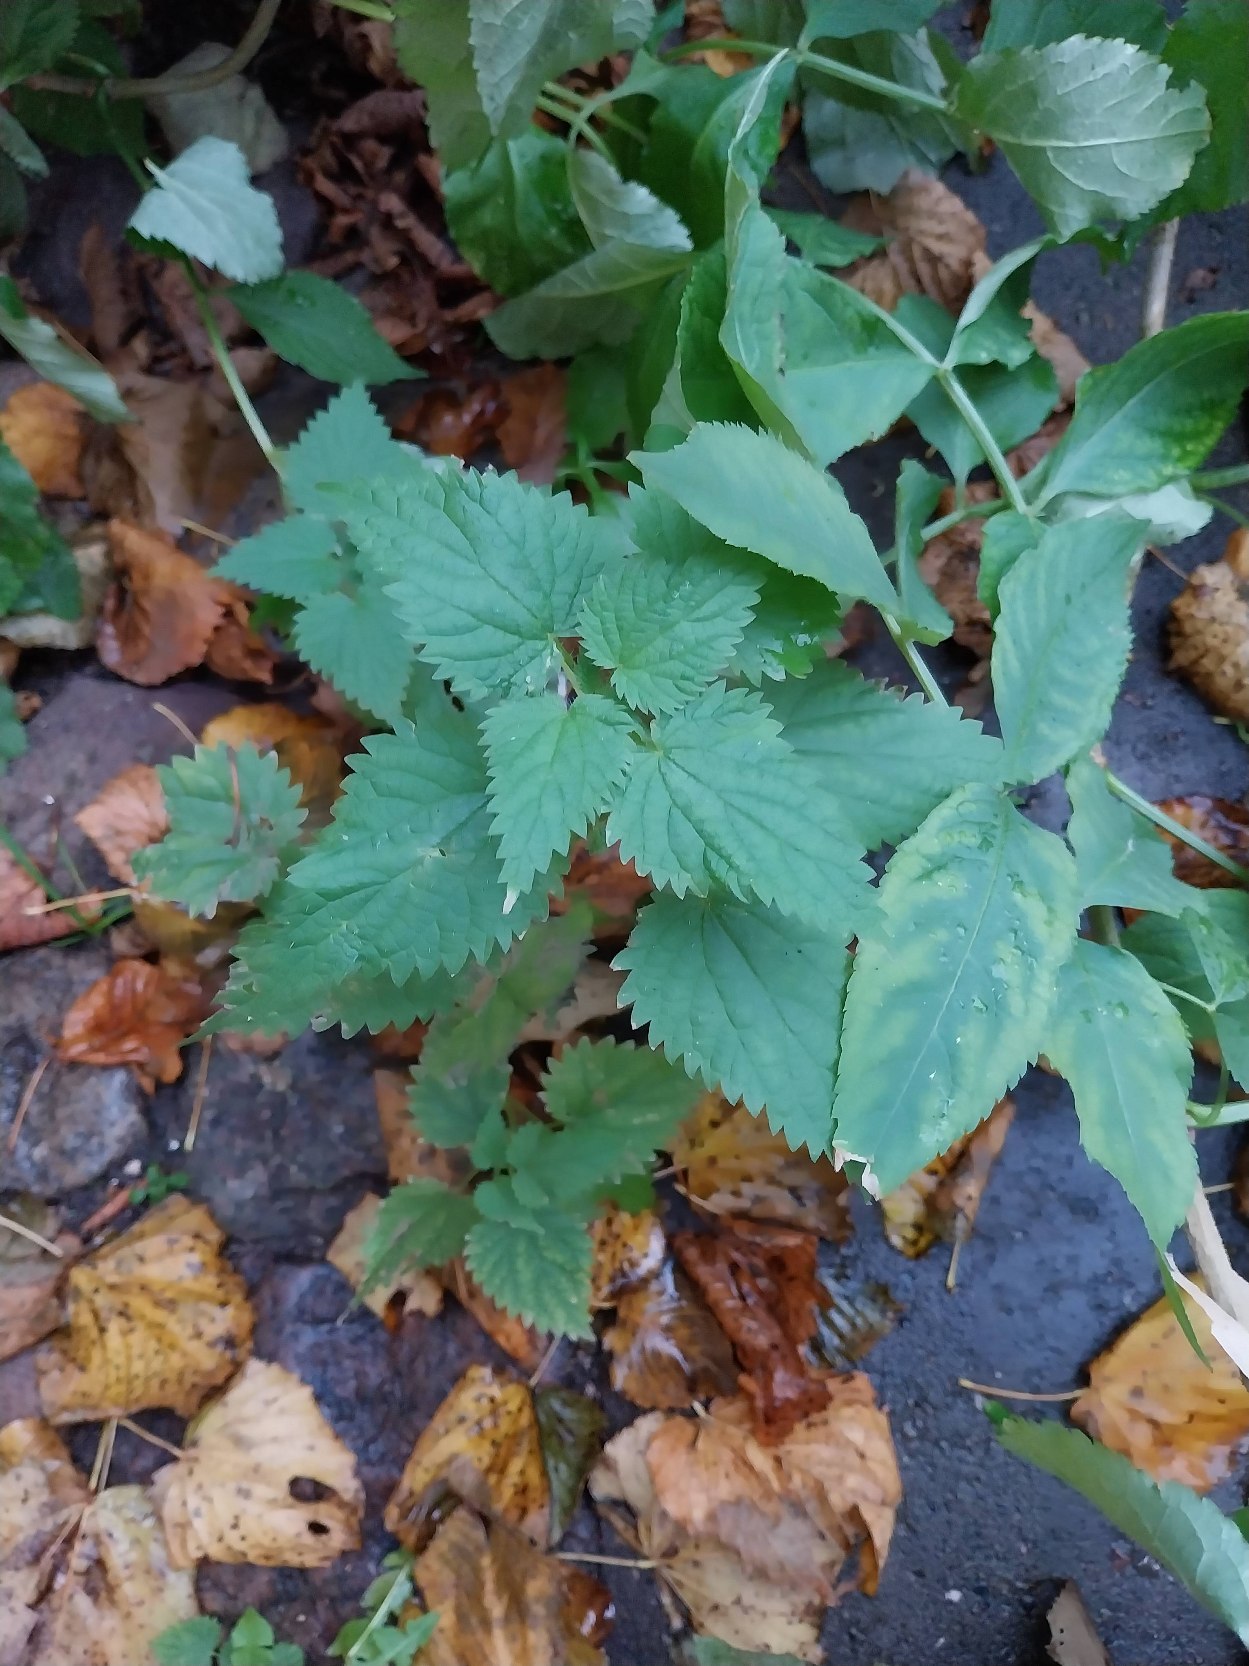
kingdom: Plantae
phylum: Tracheophyta
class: Magnoliopsida
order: Rosales
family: Urticaceae
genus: Urtica
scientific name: Urtica dioica
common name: Stor nælde
